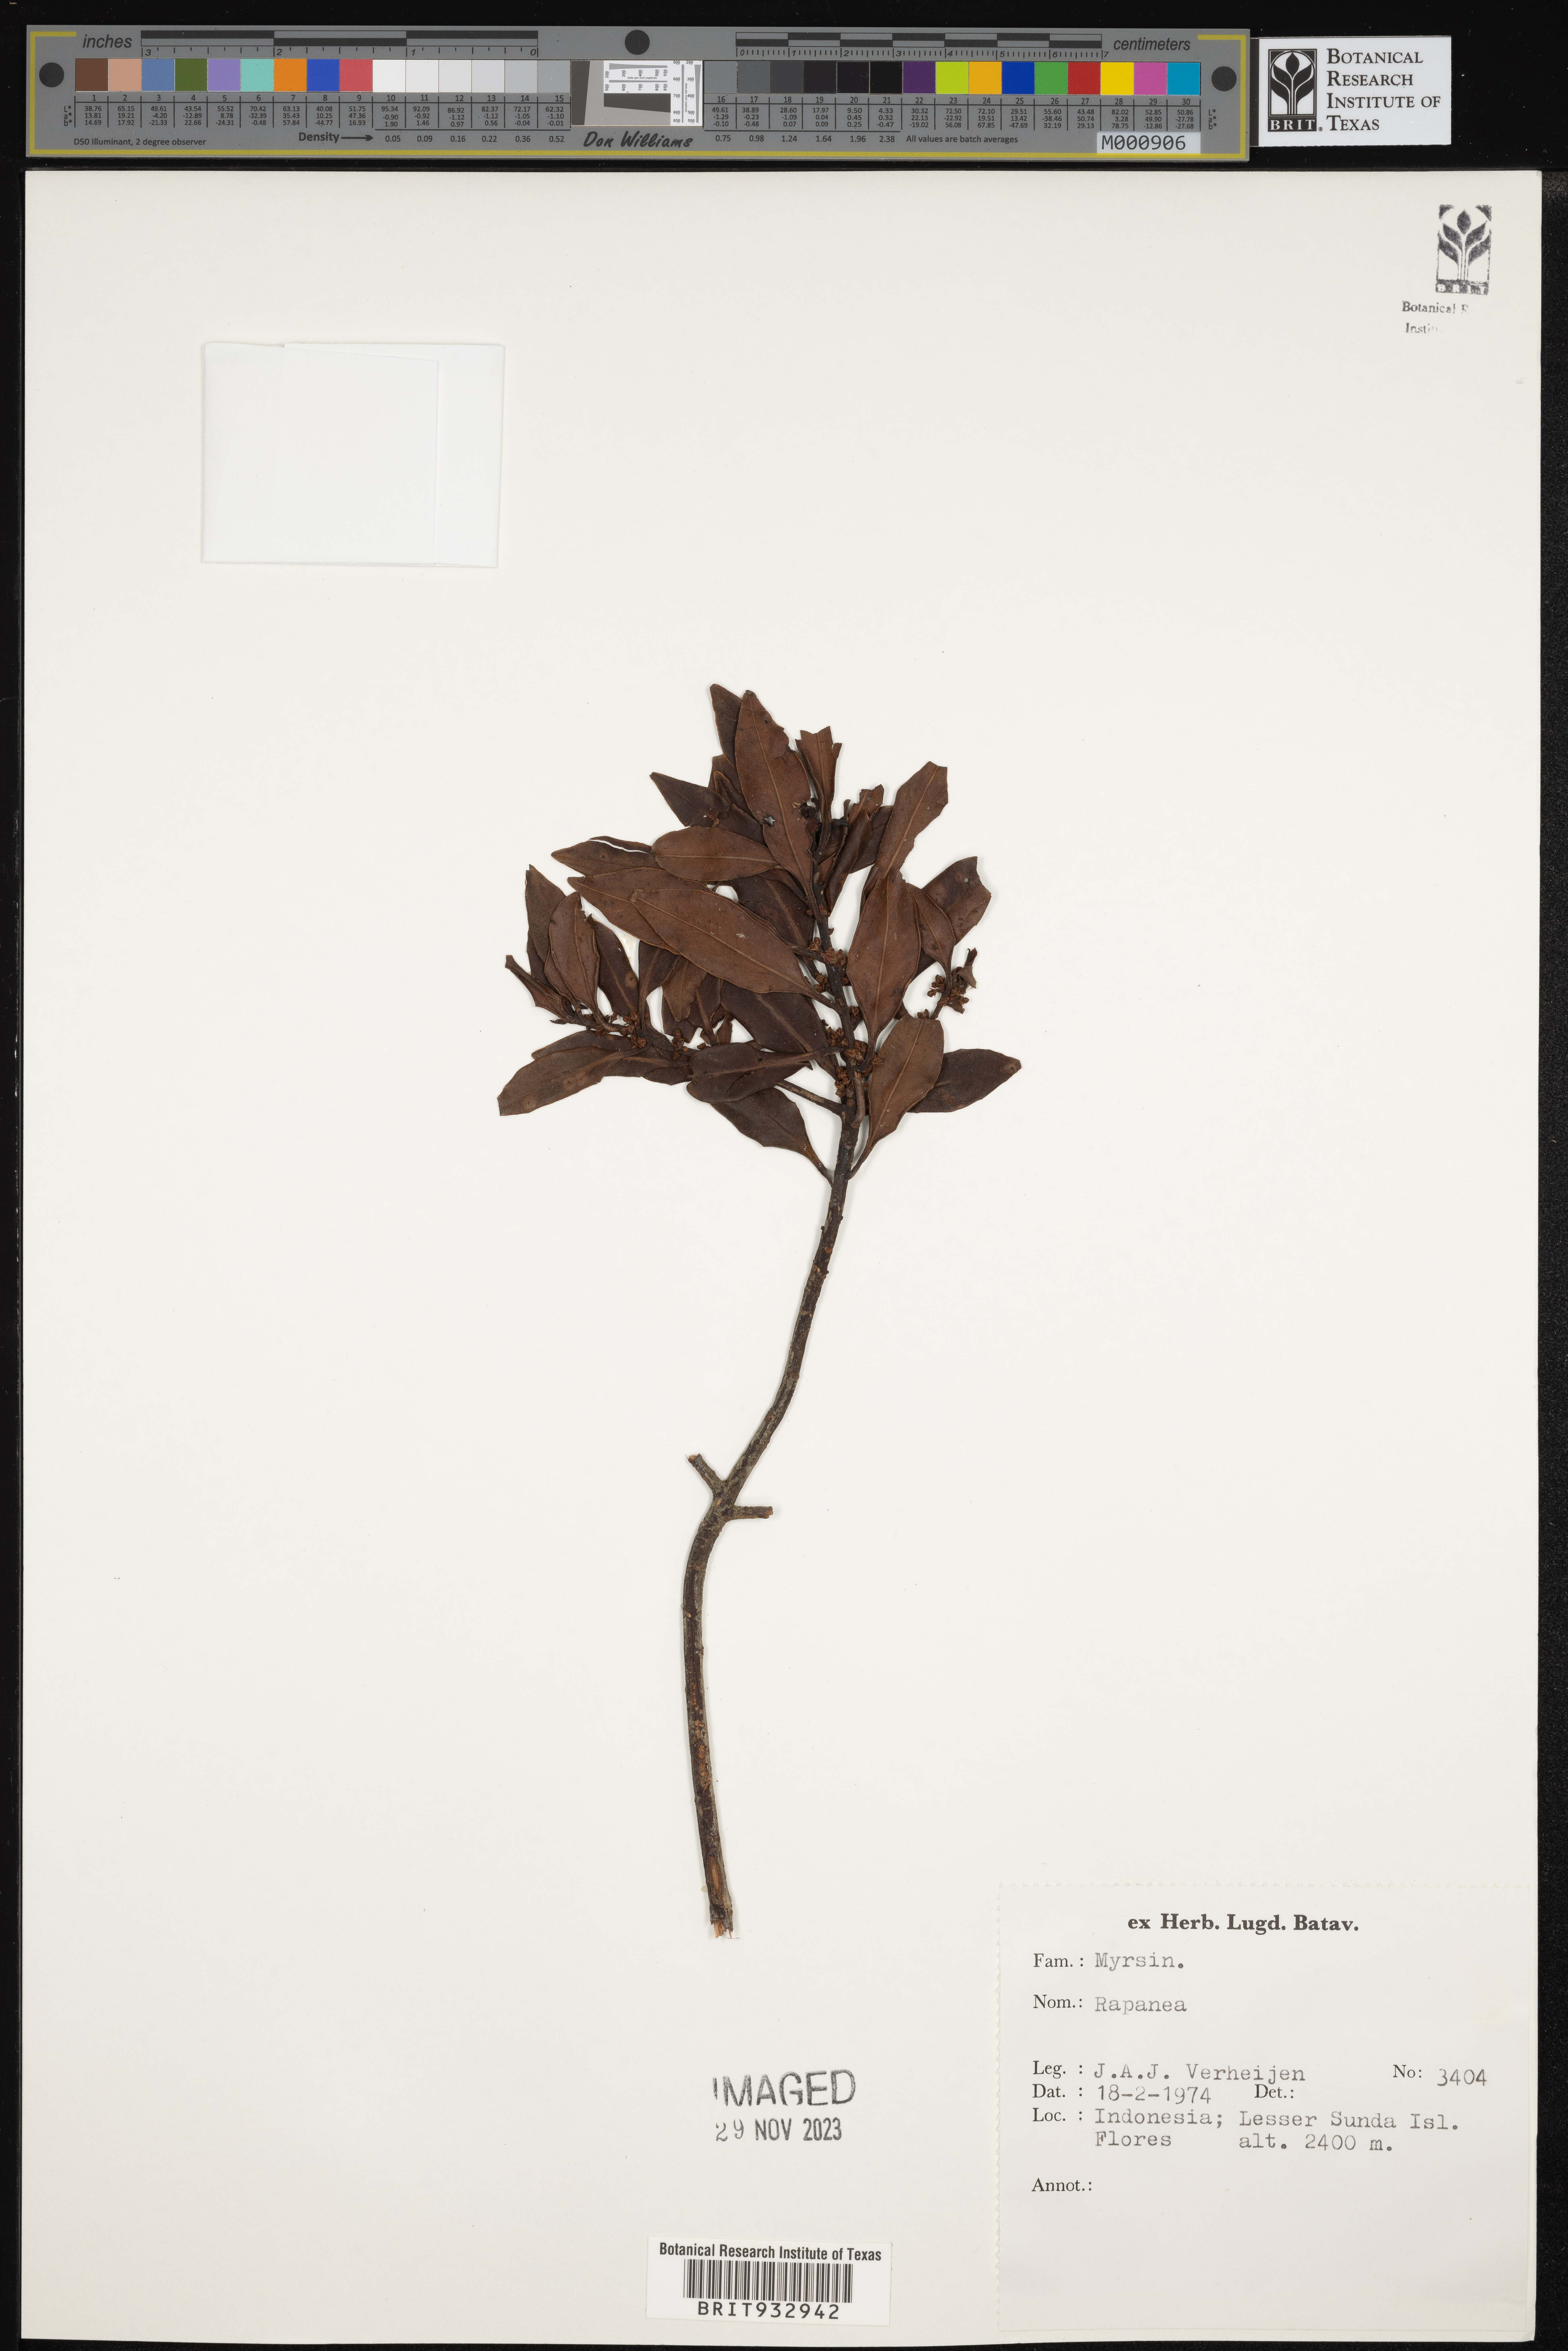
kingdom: Plantae
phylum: Tracheophyta
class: Magnoliopsida
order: Ericales
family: Primulaceae
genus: Myrsine
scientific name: Myrsine
